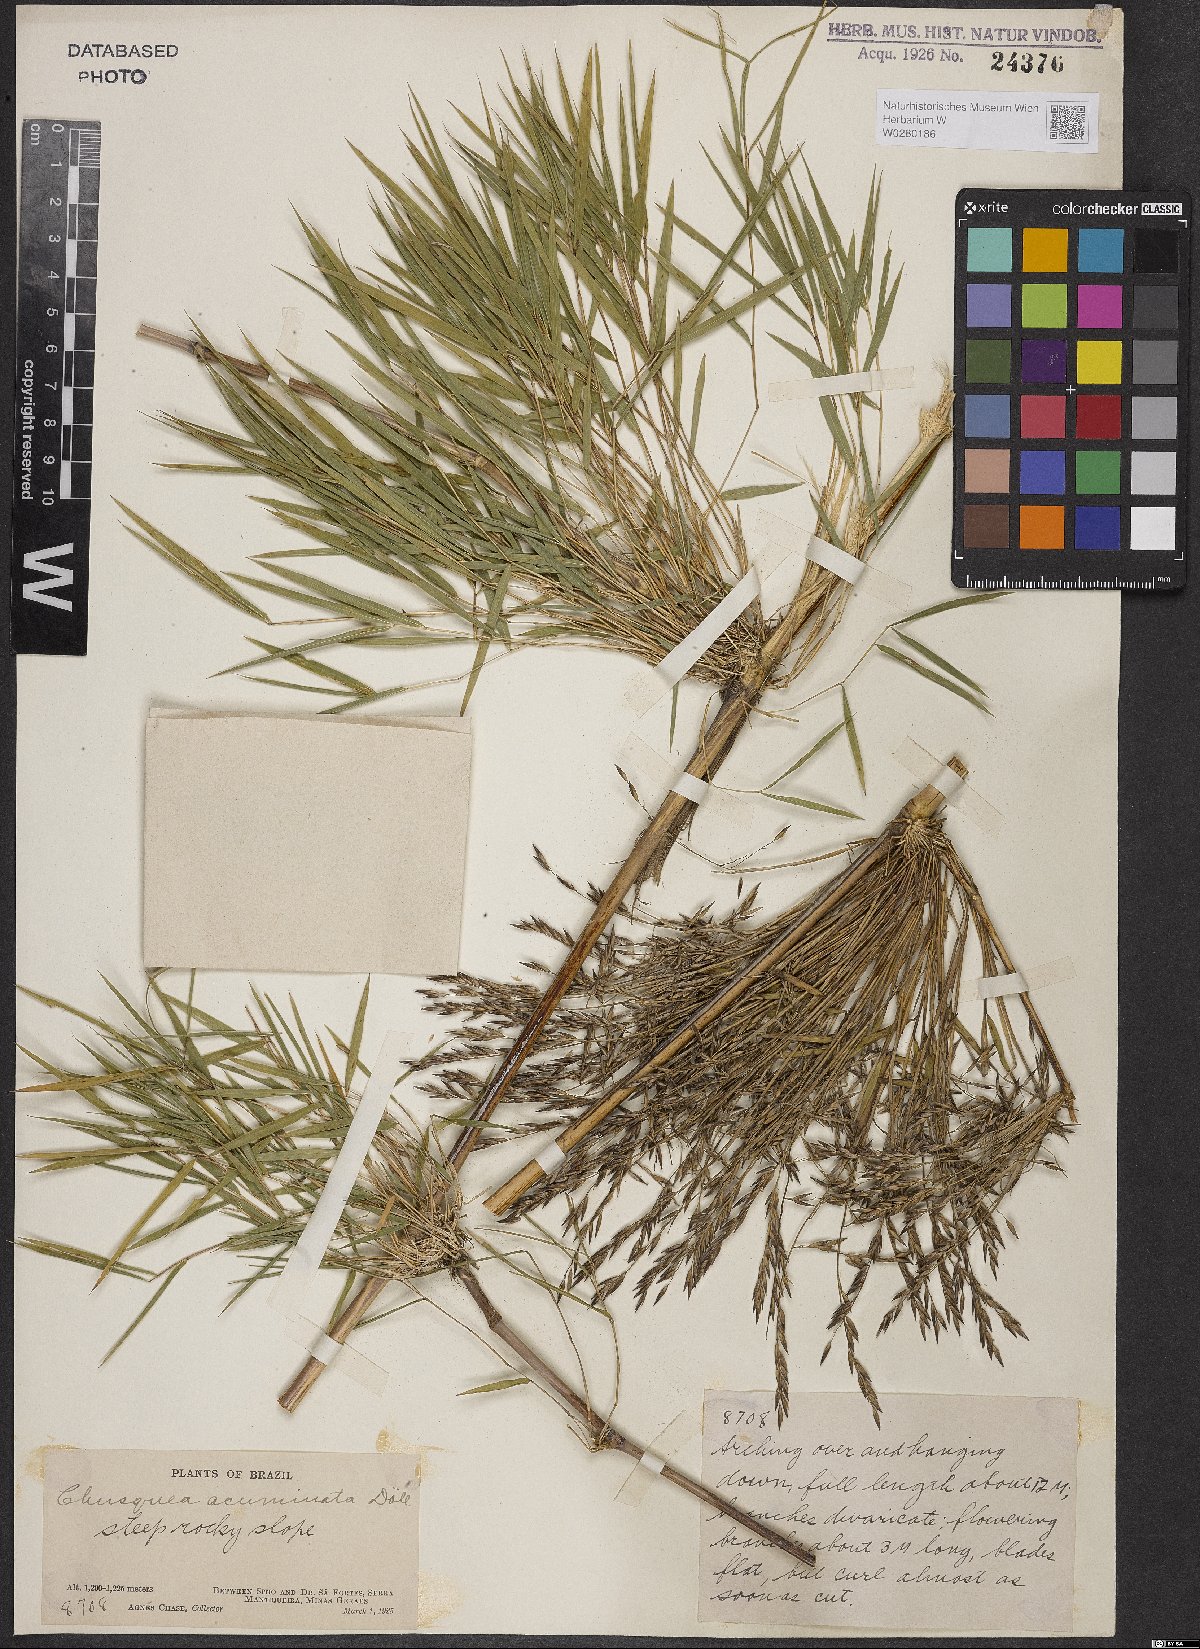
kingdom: Plantae
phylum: Tracheophyta
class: Liliopsida
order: Poales
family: Poaceae
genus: Chusquea
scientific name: Chusquea acuminata
